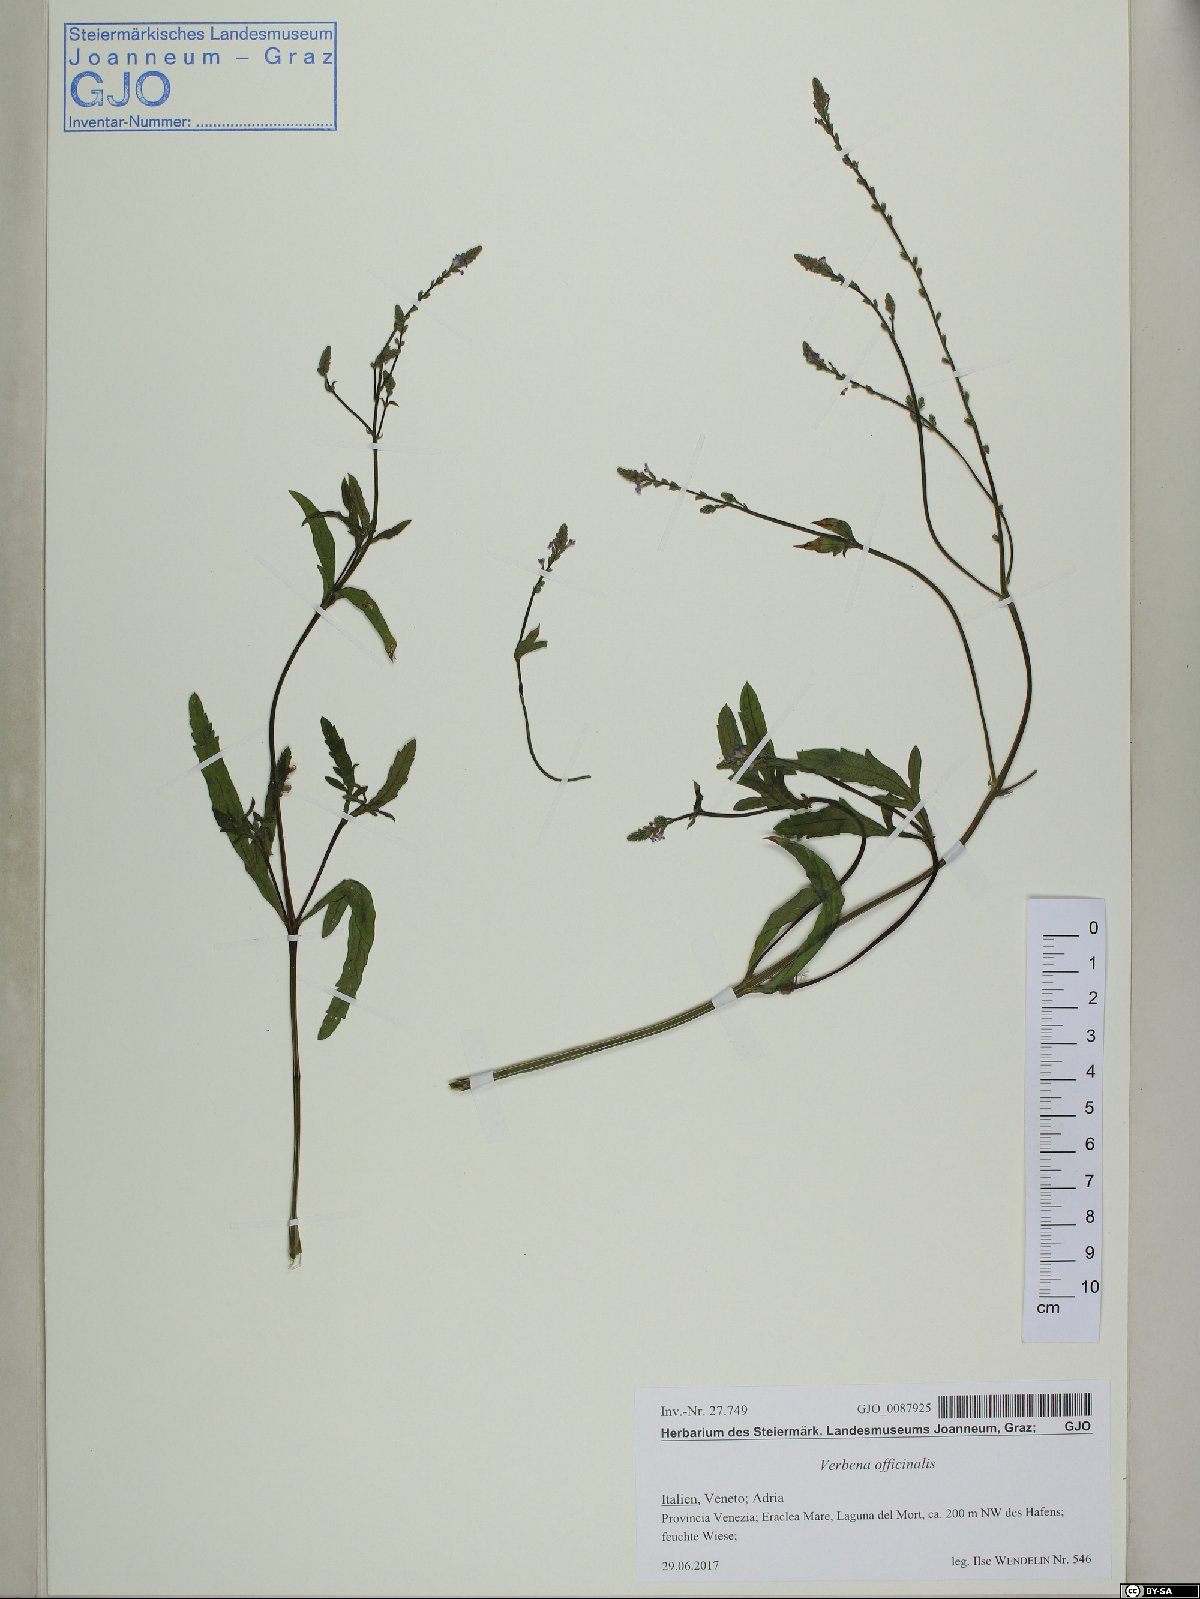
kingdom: Plantae
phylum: Tracheophyta
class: Magnoliopsida
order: Lamiales
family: Verbenaceae
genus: Verbena
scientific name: Verbena officinalis
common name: Vervain
